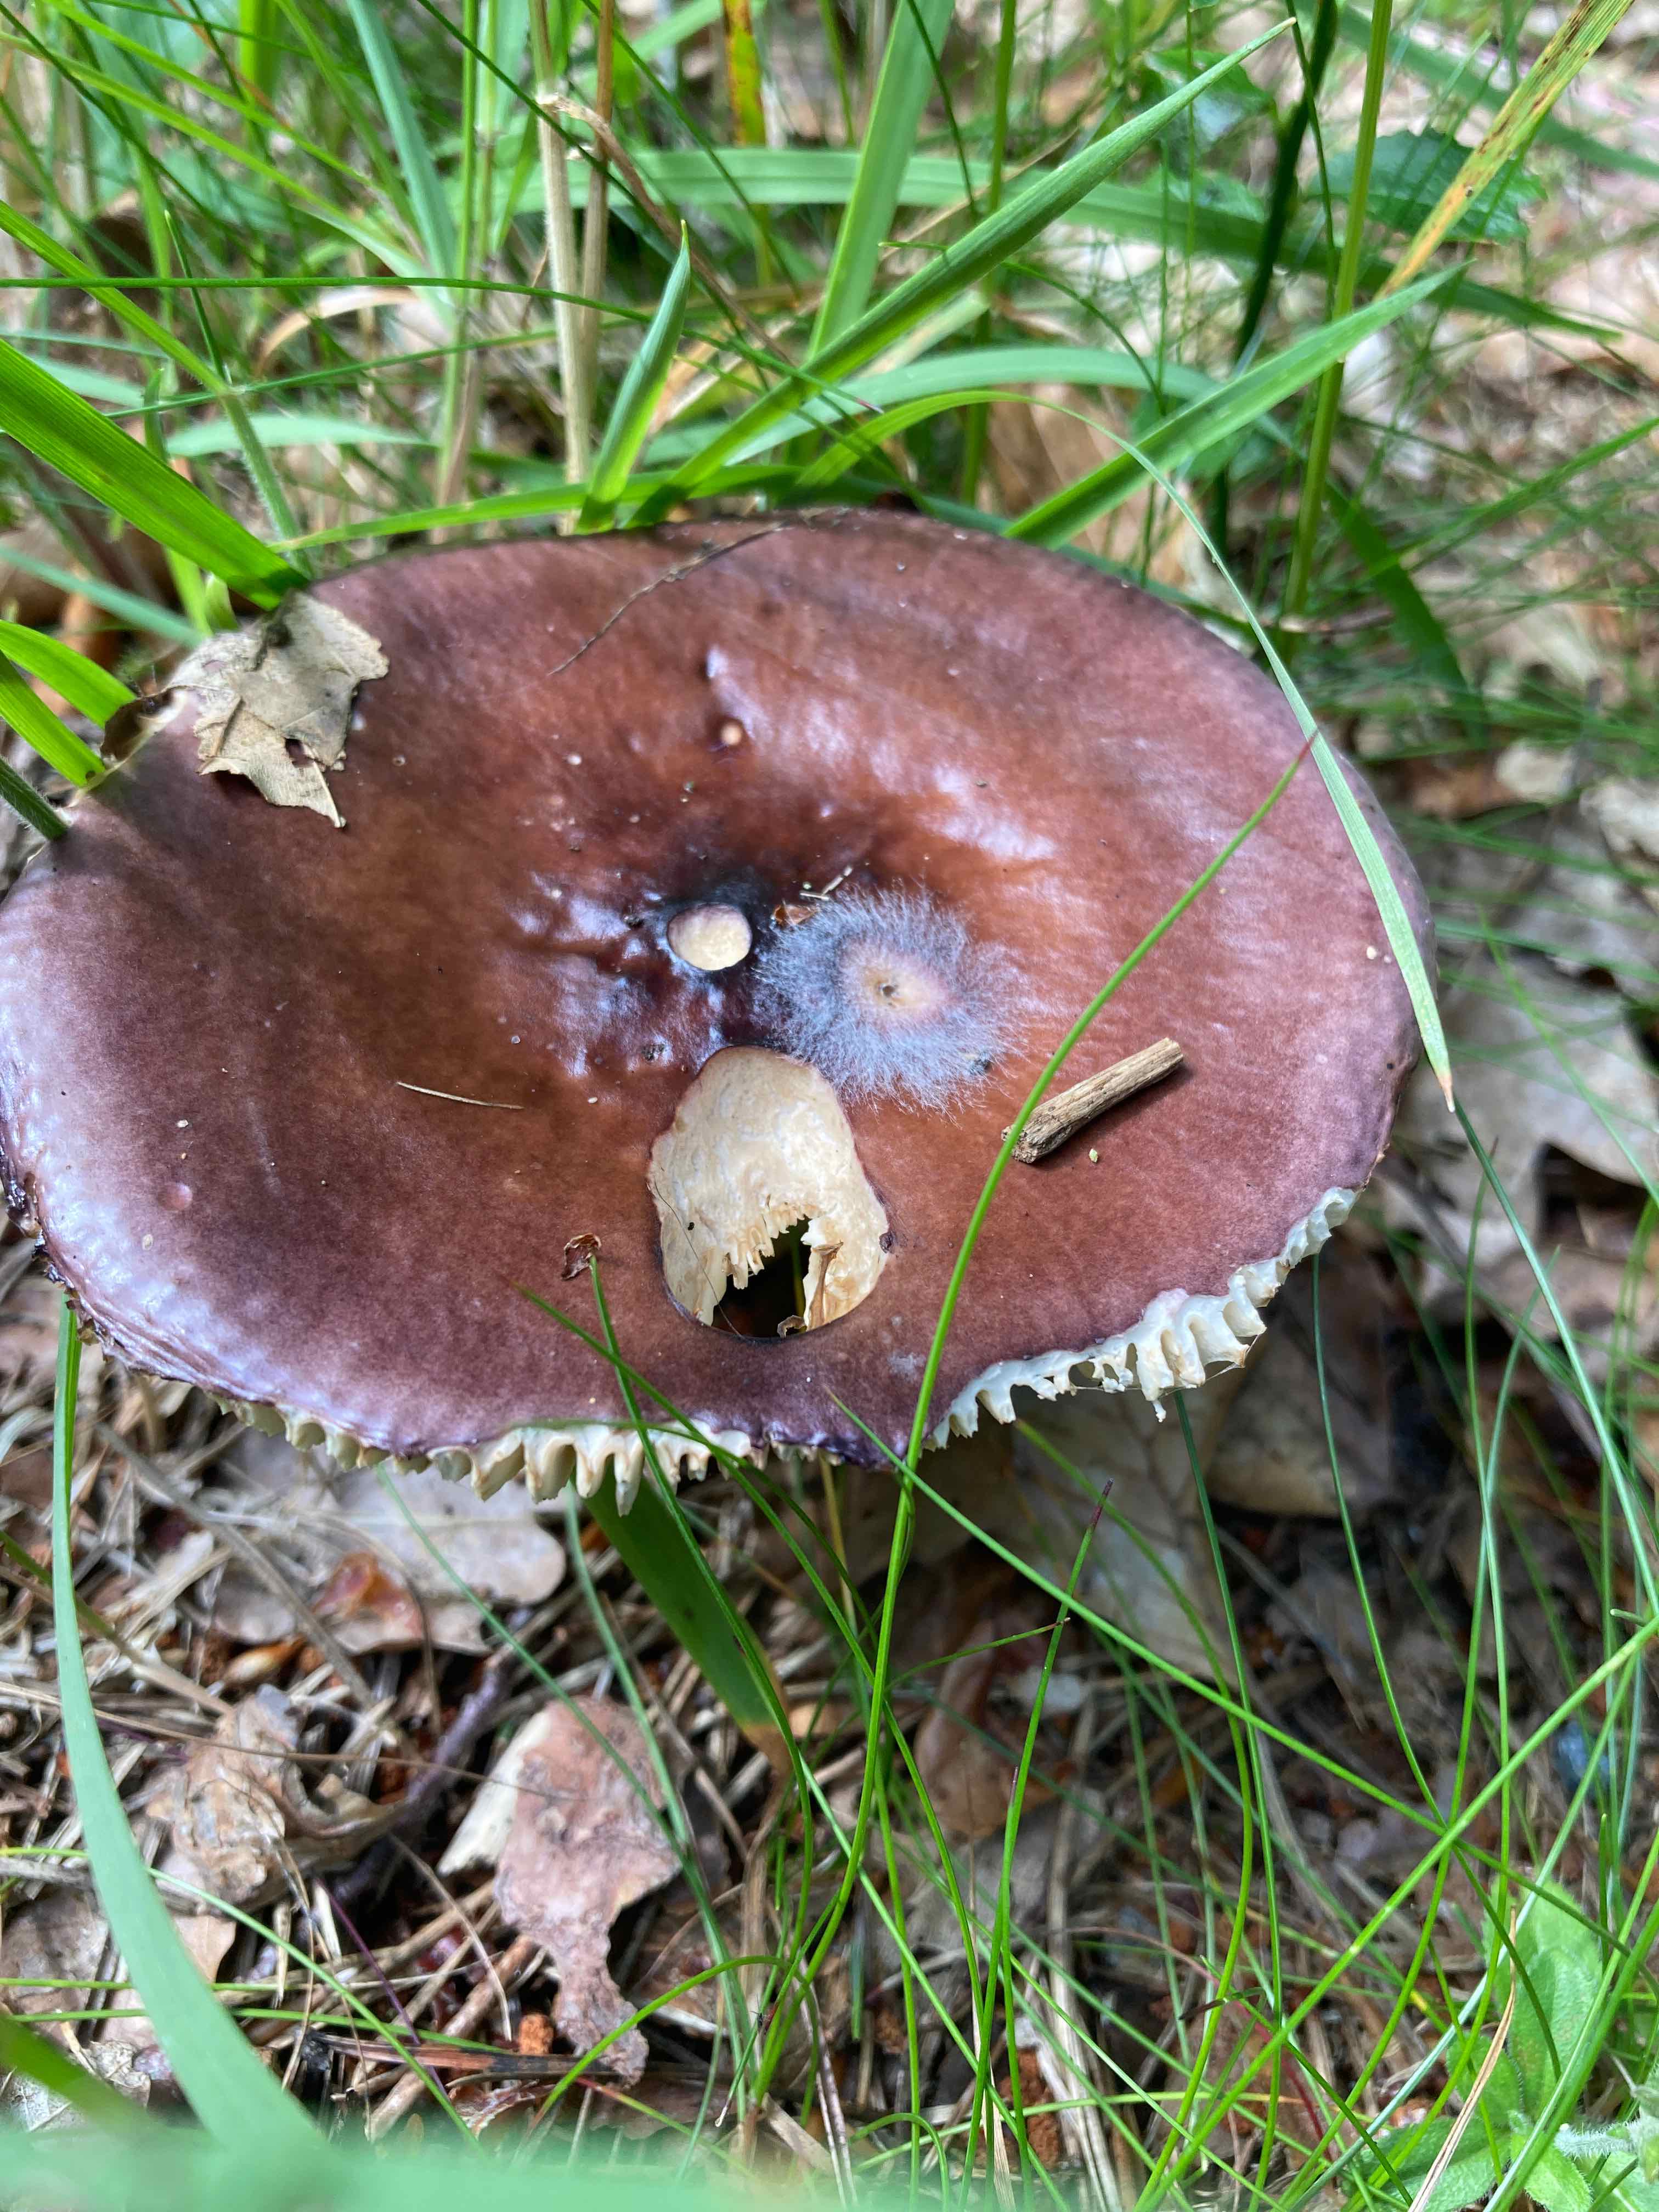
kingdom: Fungi
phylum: Basidiomycota
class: Agaricomycetes
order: Russulales
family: Russulaceae
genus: Russula
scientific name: Russula
